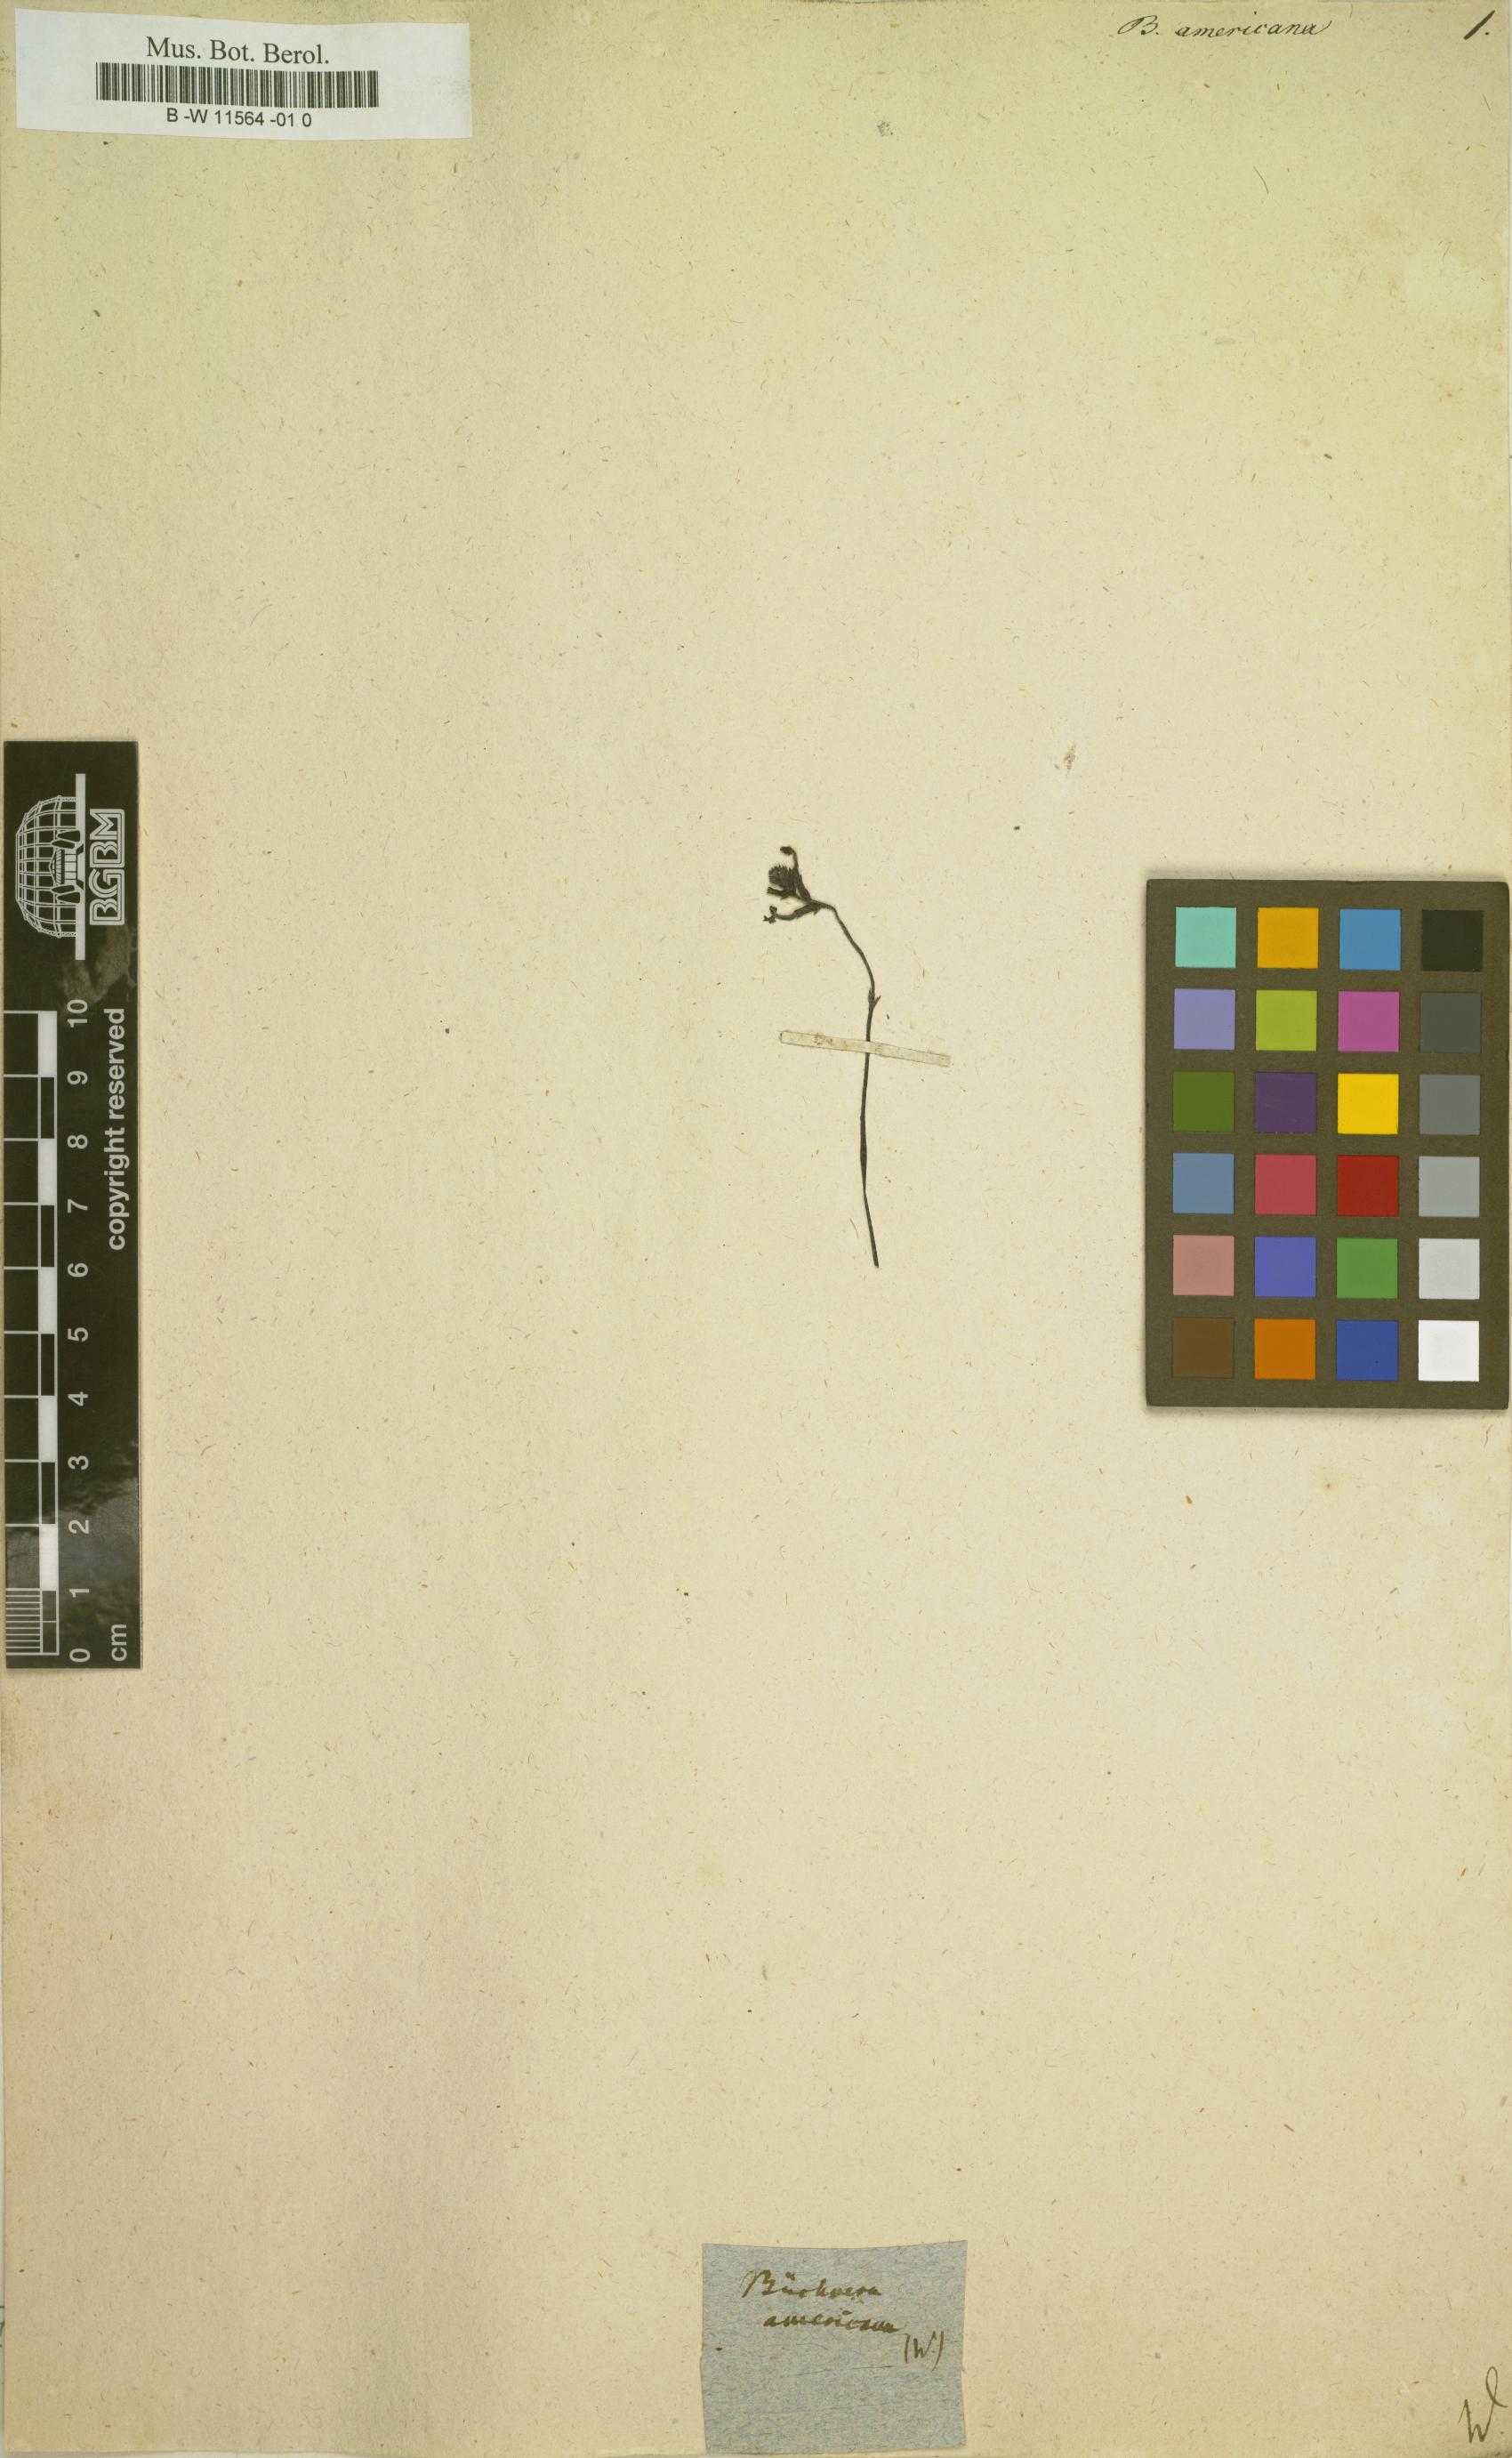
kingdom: Plantae
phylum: Tracheophyta
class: Magnoliopsida
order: Lamiales
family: Orobanchaceae
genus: Buchnera
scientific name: Buchnera americana
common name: American bluehearts
